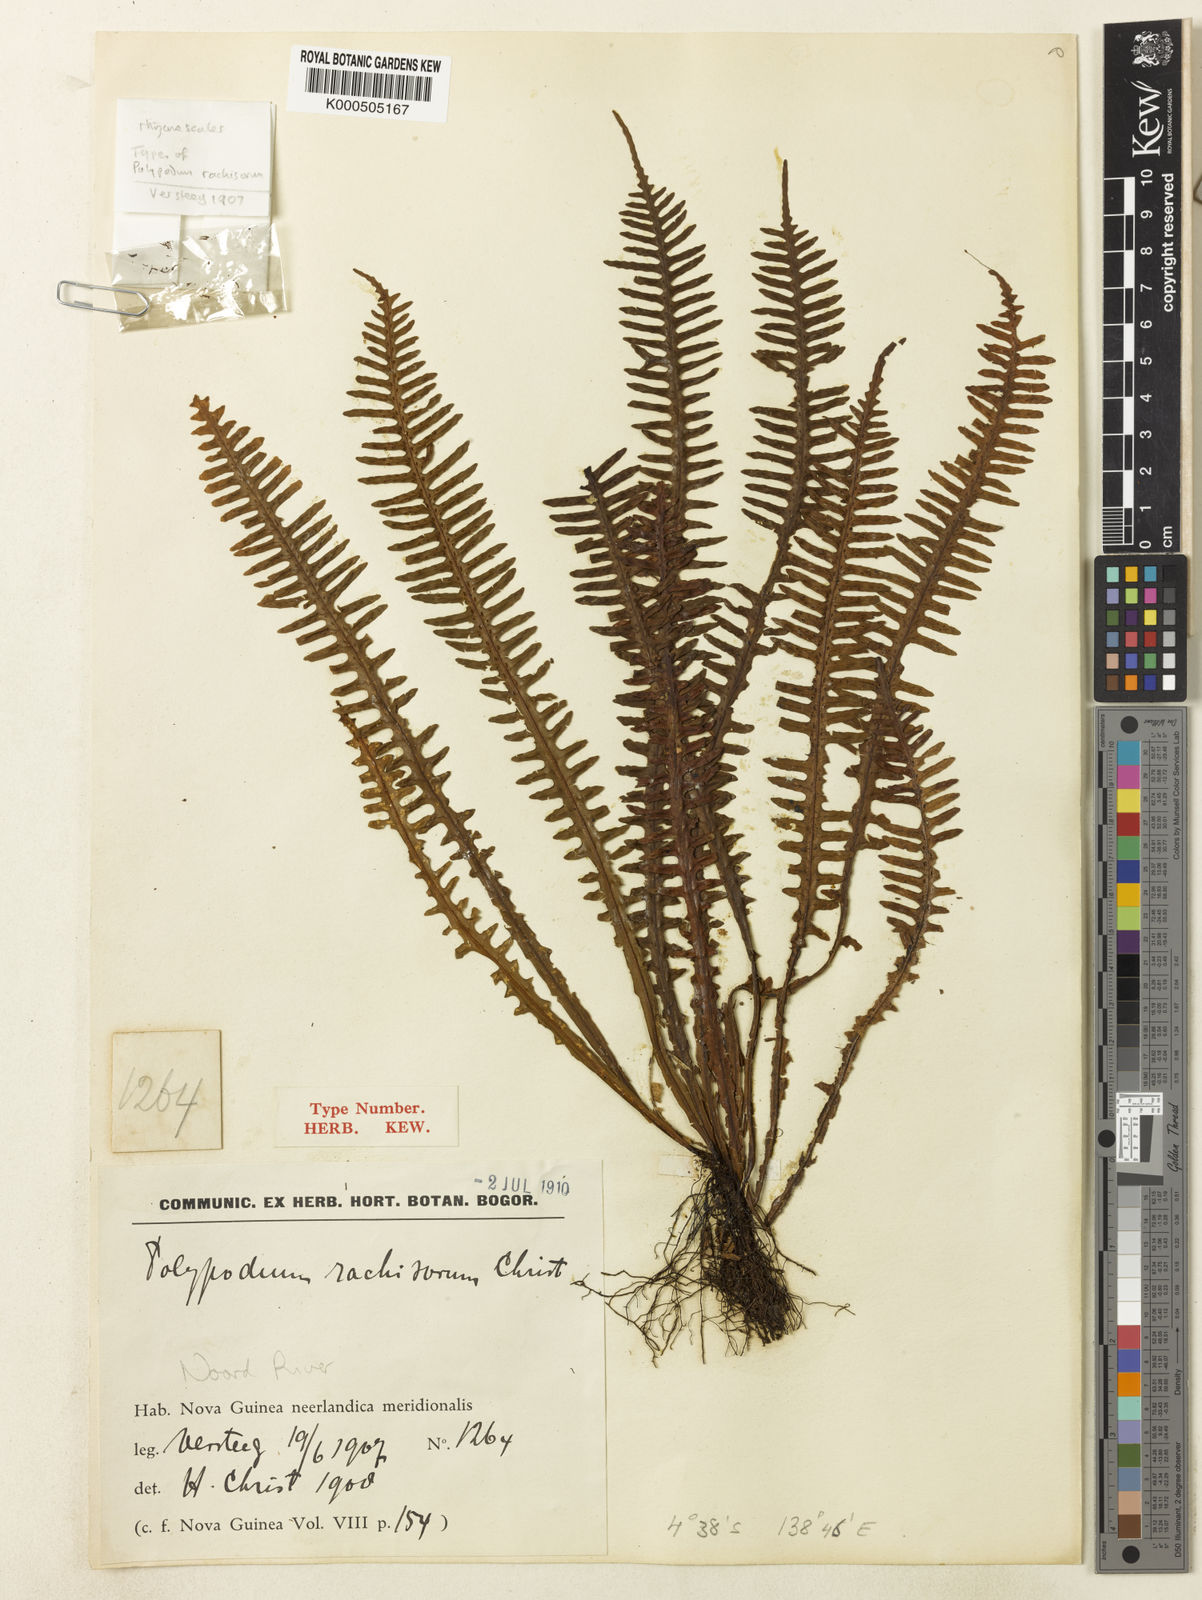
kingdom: Plantae
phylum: Tracheophyta
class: Polypodiopsida
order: Polypodiales
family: Polypodiaceae
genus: Prosaptia
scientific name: Prosaptia burbidgei
